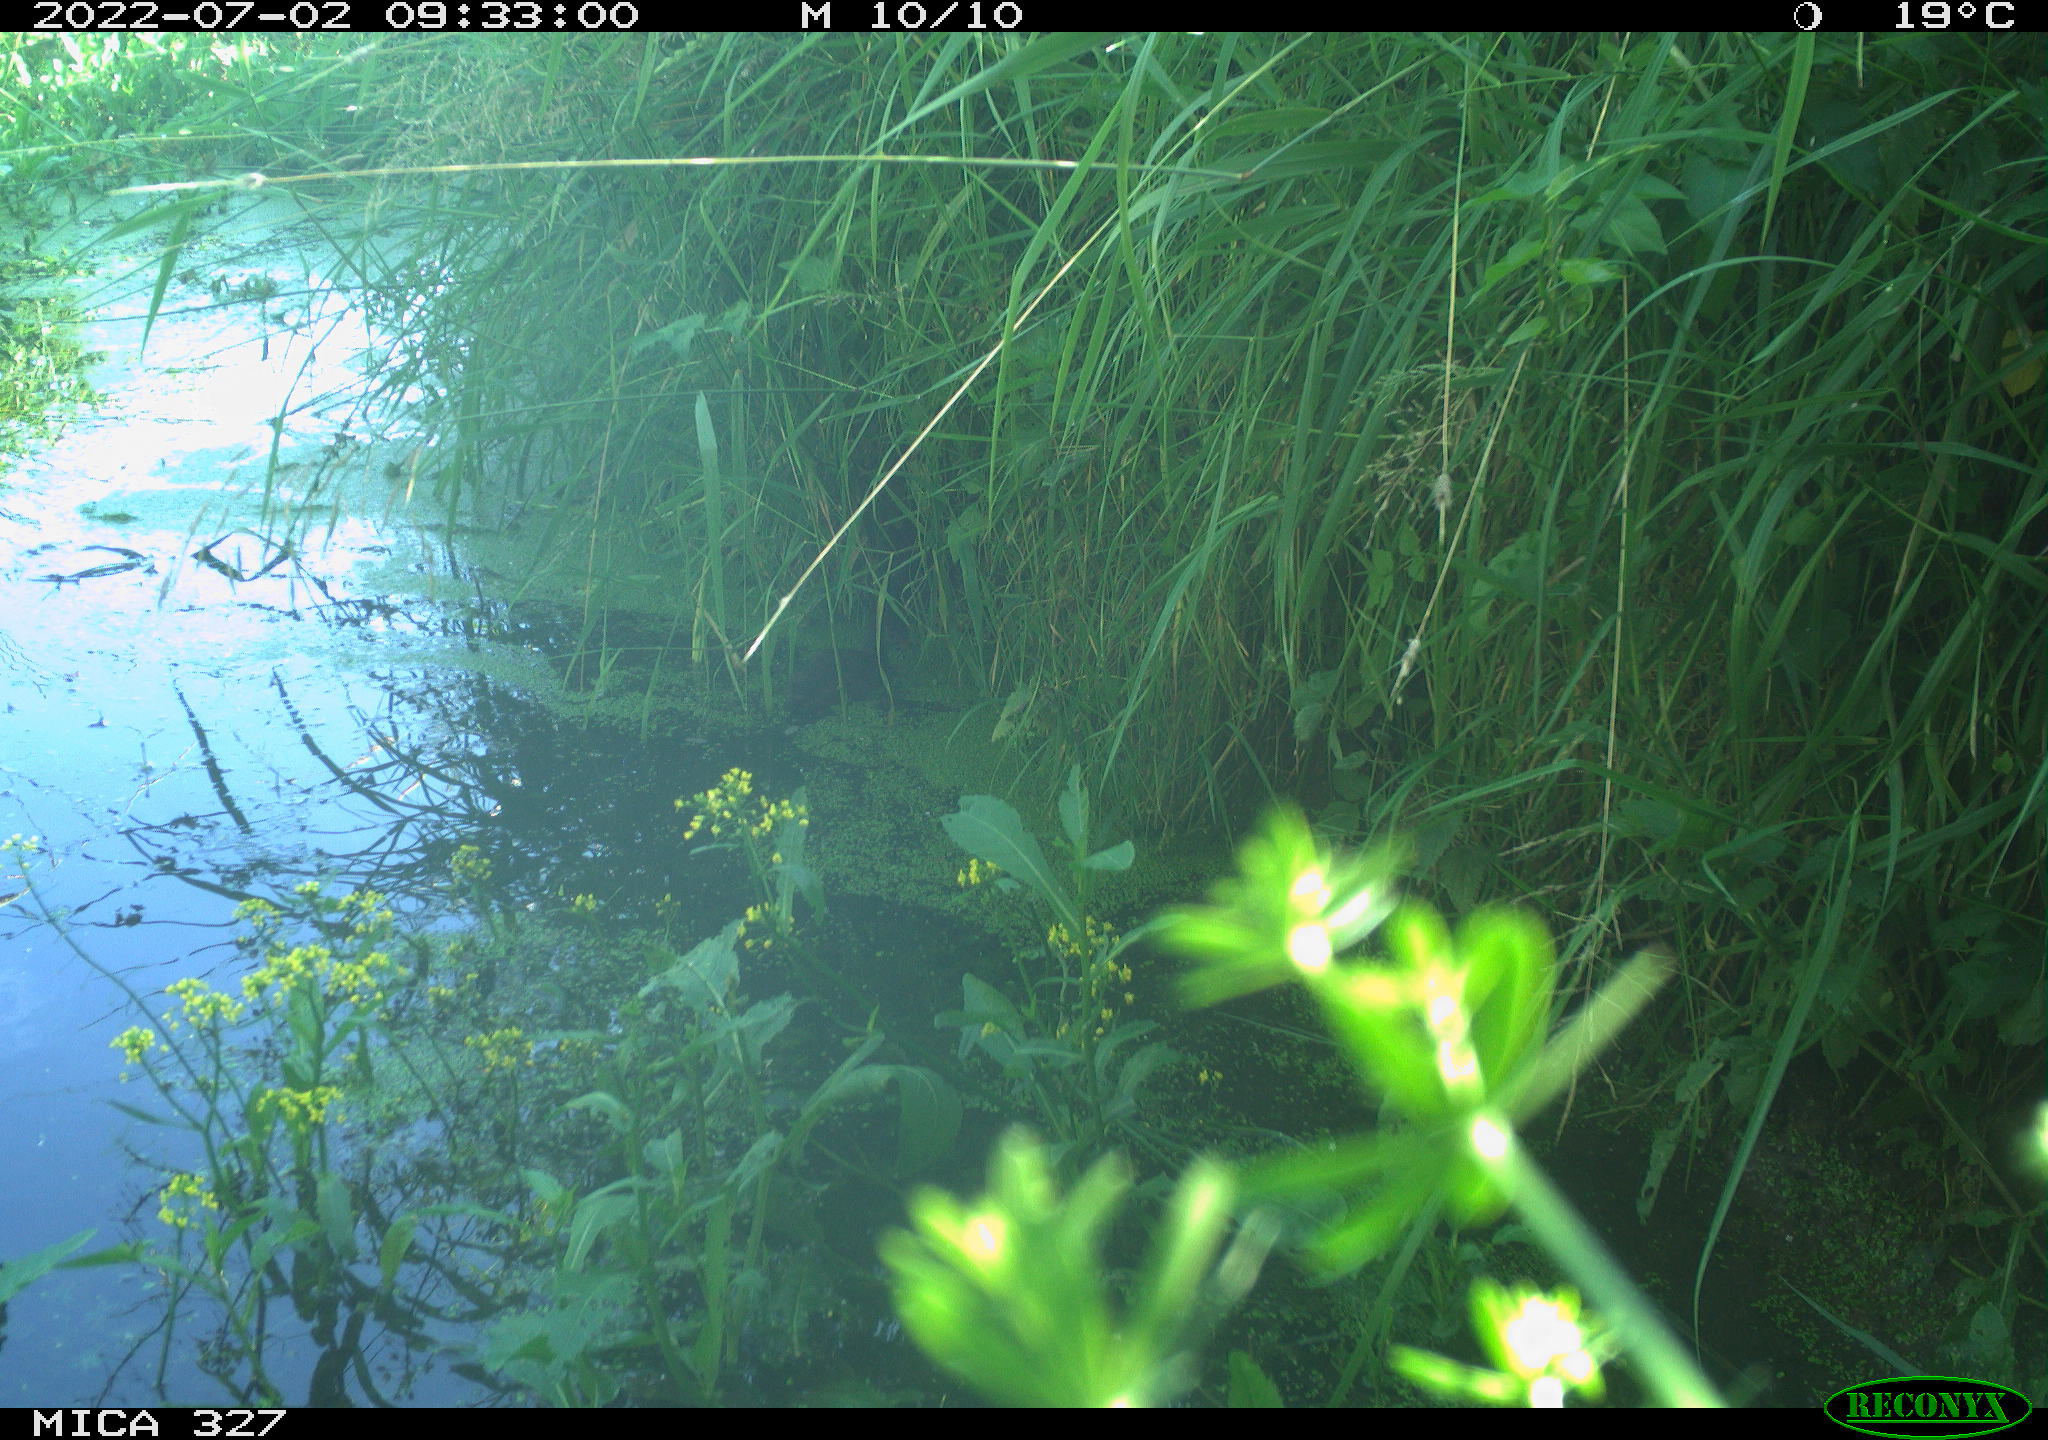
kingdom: Animalia
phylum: Chordata
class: Aves
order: Gruiformes
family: Rallidae
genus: Gallinula
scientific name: Gallinula chloropus
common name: Common moorhen
